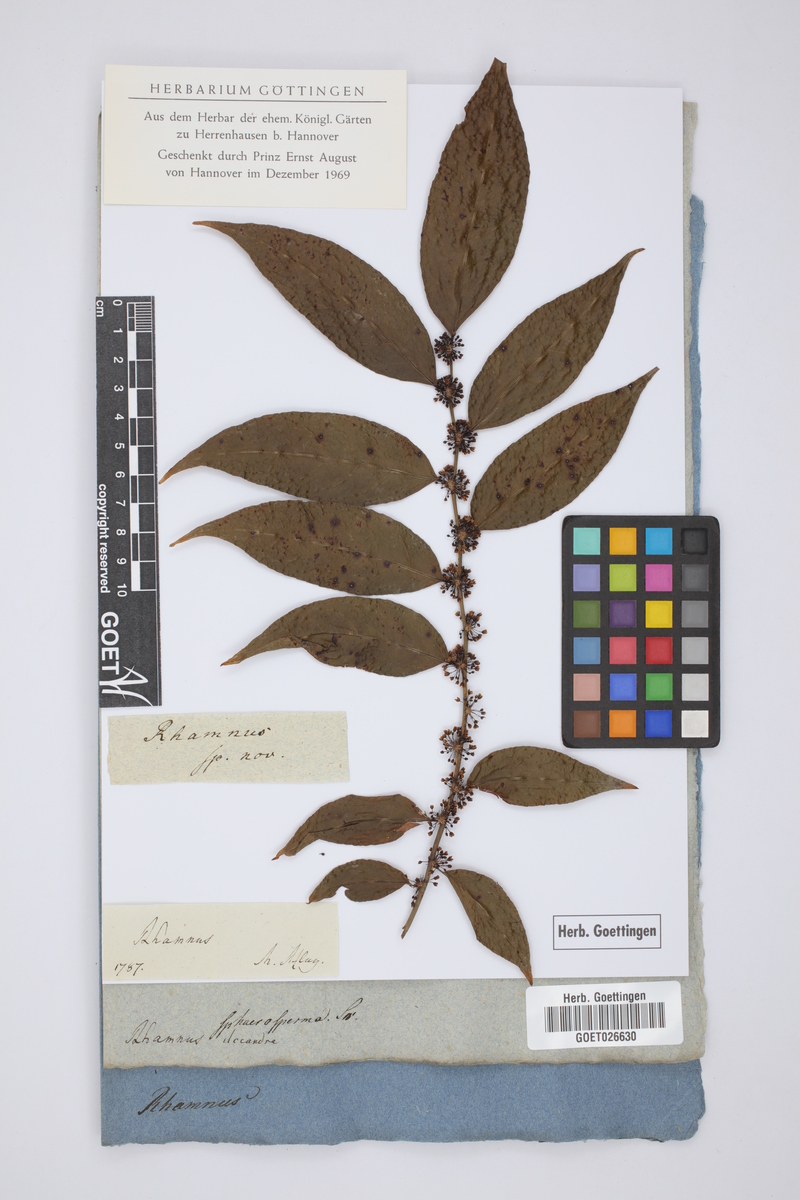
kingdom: Plantae
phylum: Tracheophyta
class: Magnoliopsida
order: Rosales
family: Rhamnaceae
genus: Frangula
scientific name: Frangula sphaerosperma
